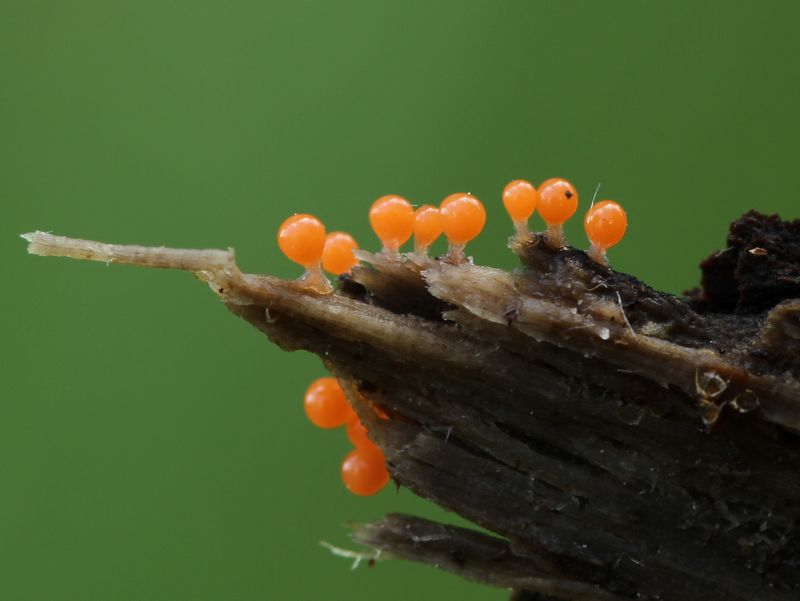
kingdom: Protozoa
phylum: Mycetozoa
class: Myxomycetes
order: Trichiales
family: Arcyriaceae
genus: Hemitrichia
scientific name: Hemitrichia decipiens
